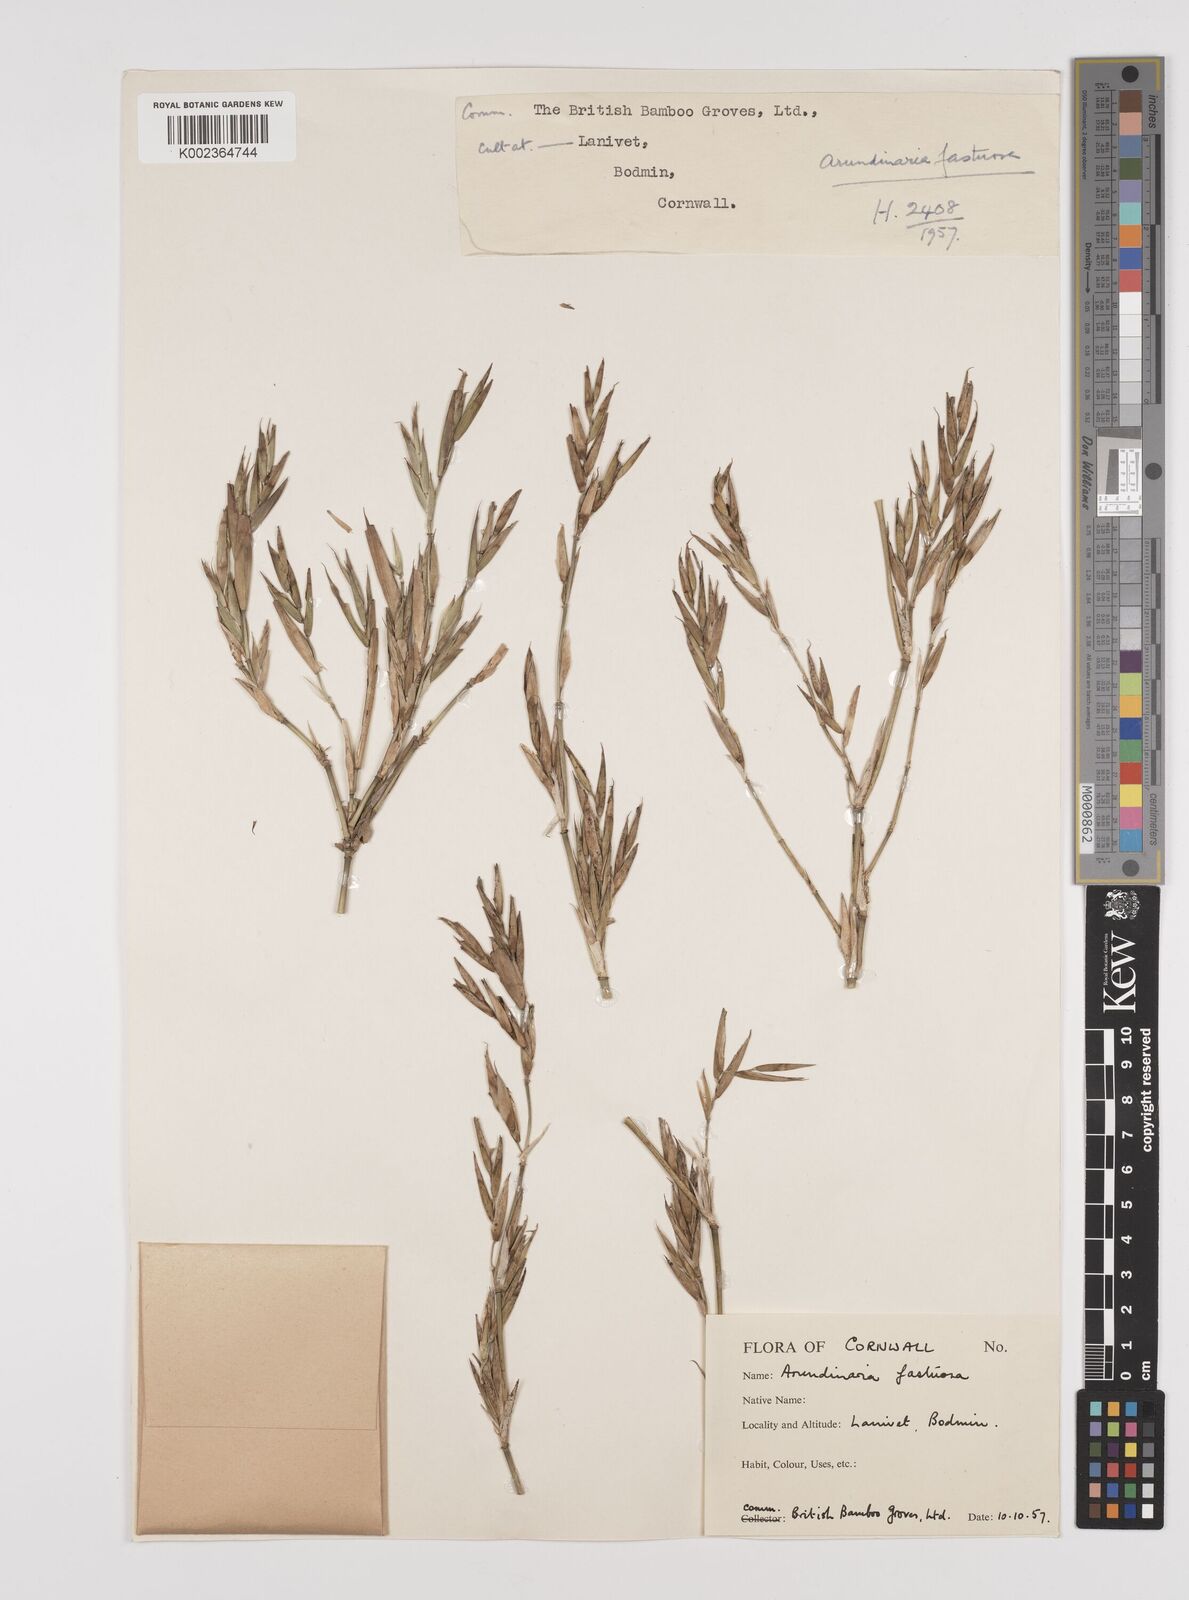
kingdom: Plantae
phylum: Tracheophyta
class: Liliopsida
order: Poales
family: Poaceae
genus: Semiarundinaria
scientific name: Semiarundinaria fastuosa
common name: Narihira bamboo
